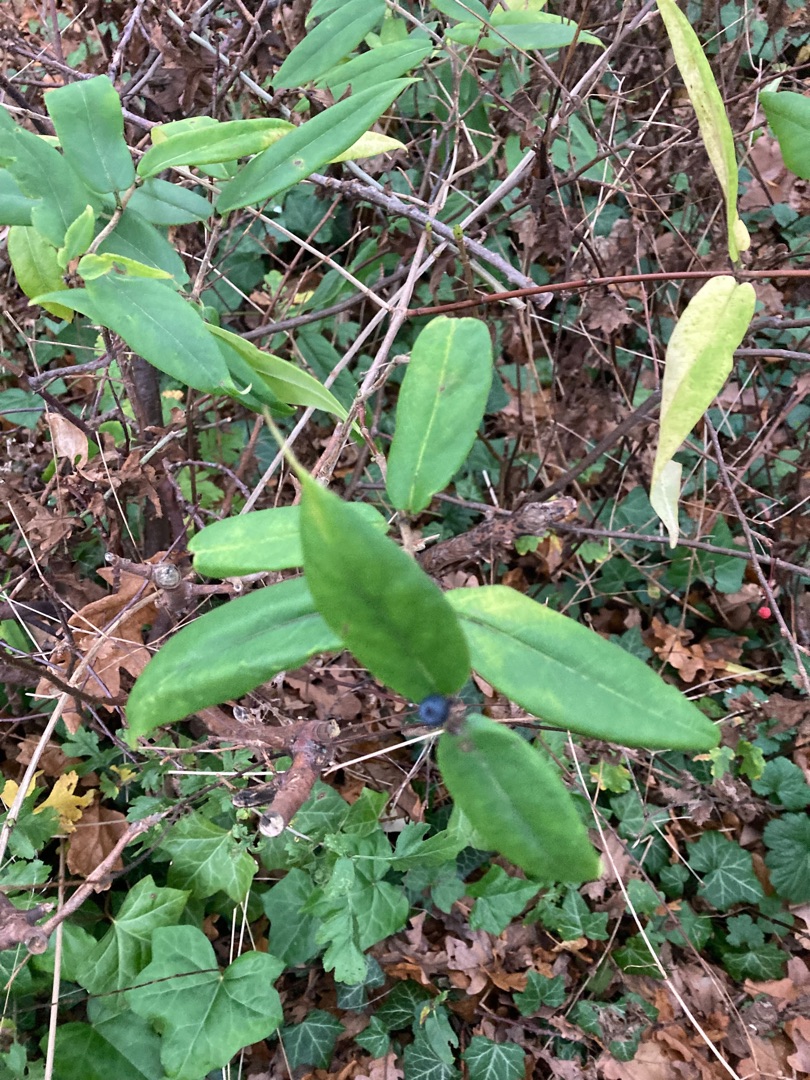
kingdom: Plantae
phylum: Tracheophyta
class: Magnoliopsida
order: Dipsacales
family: Caprifoliaceae
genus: Lonicera
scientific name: Lonicera acuminata
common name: Henrys gedeblad
